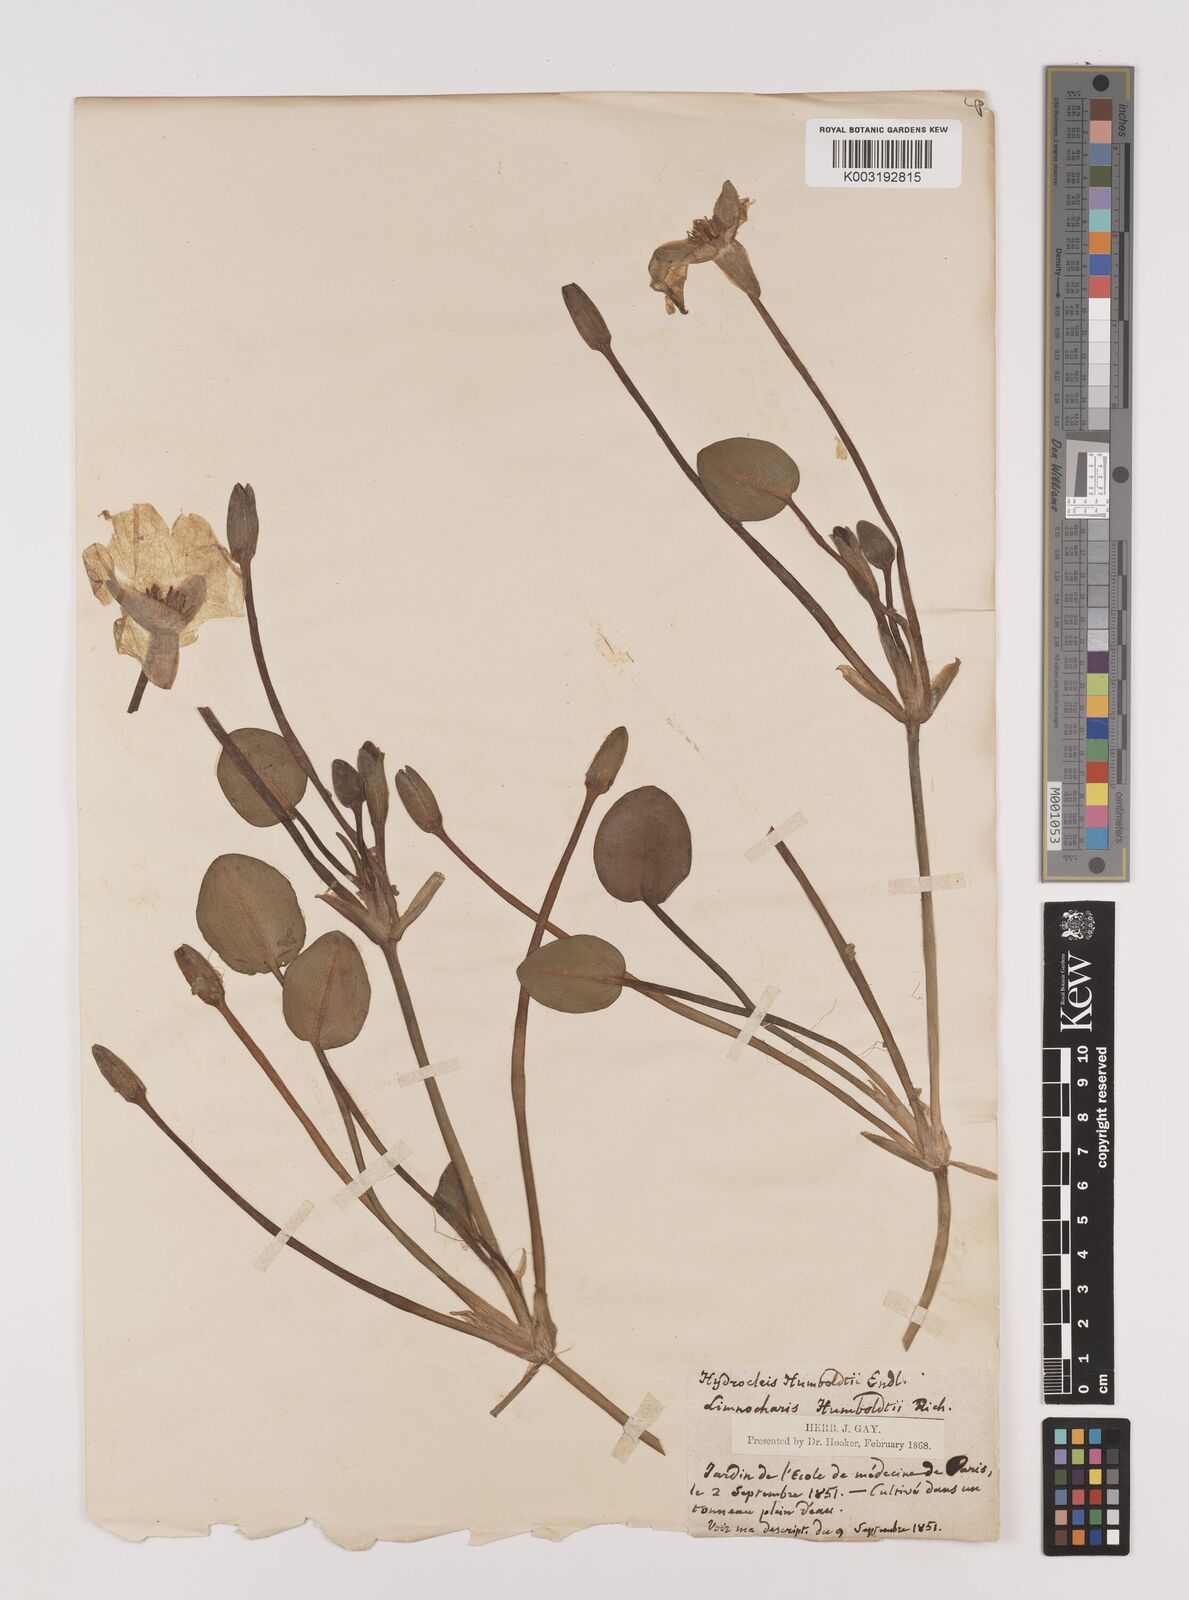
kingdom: Plantae
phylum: Tracheophyta
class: Liliopsida
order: Alismatales
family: Alismataceae
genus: Hydrocleys
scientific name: Hydrocleys nymphoides
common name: Water-poppy
